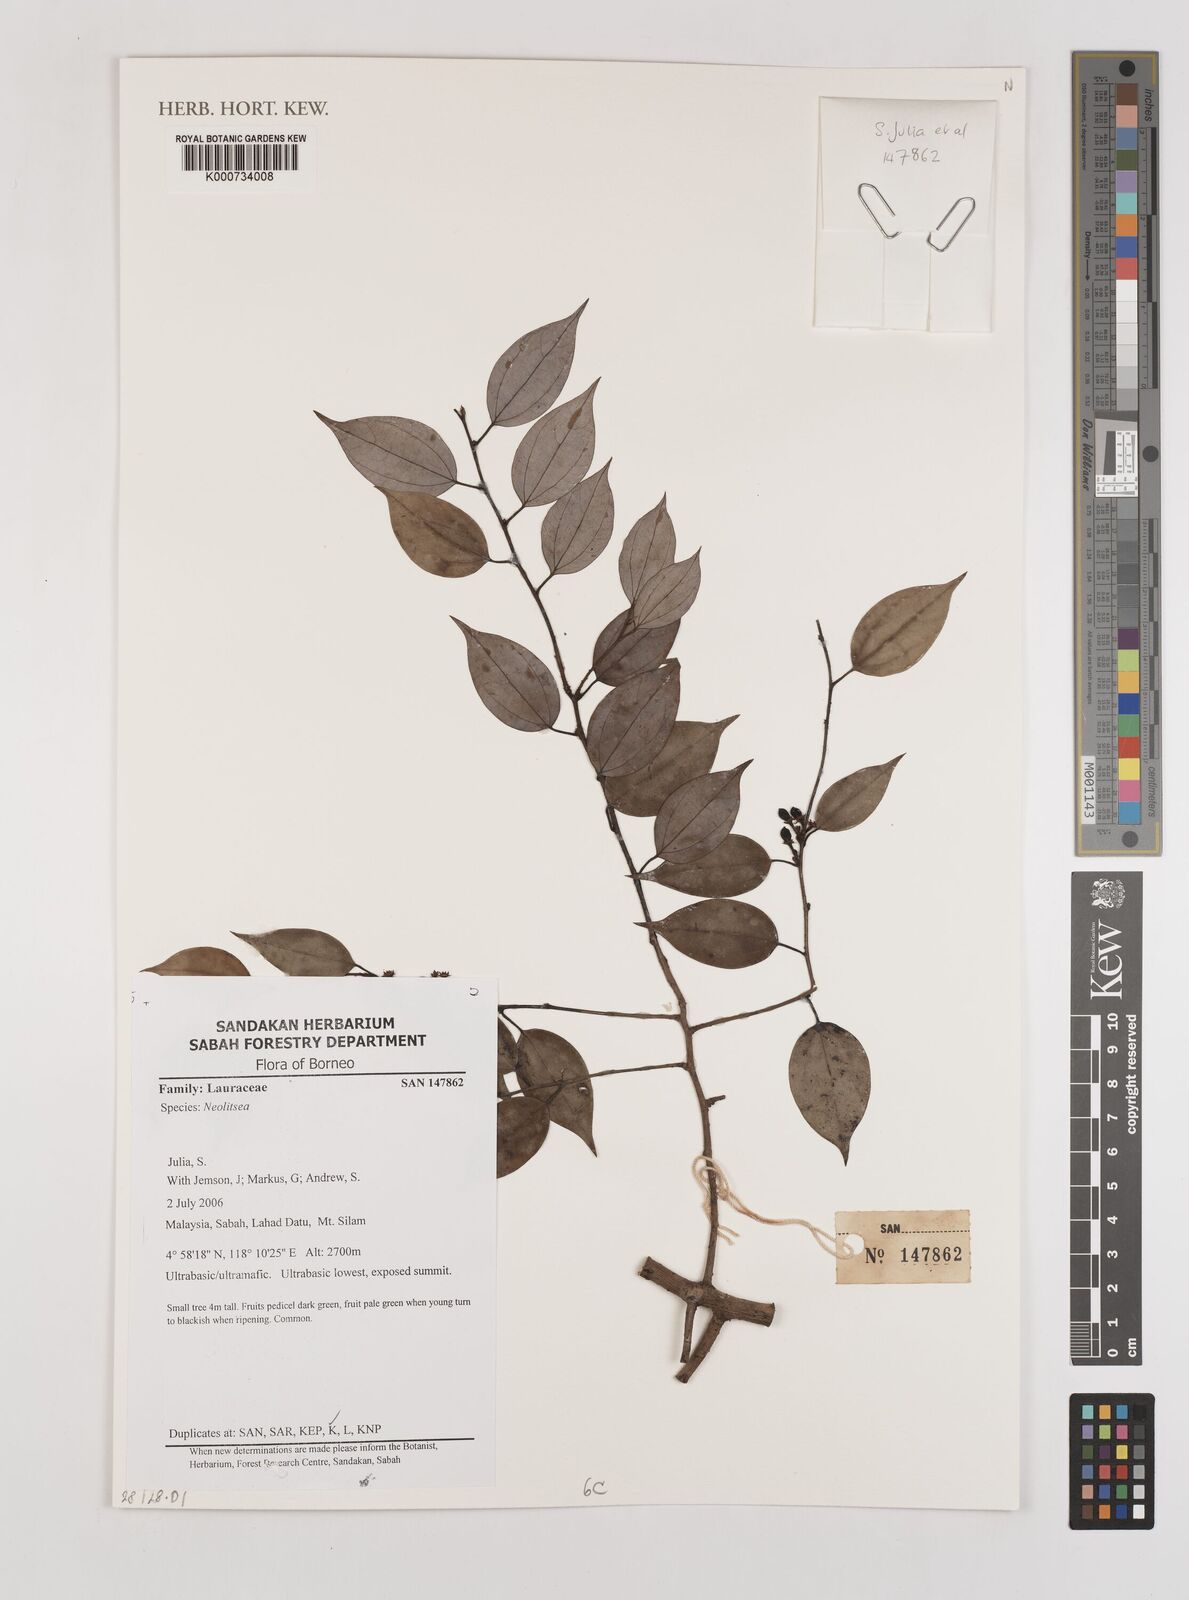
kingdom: Plantae
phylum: Tracheophyta
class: Magnoliopsida
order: Laurales
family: Lauraceae
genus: Neolitsea
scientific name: Neolitsea
